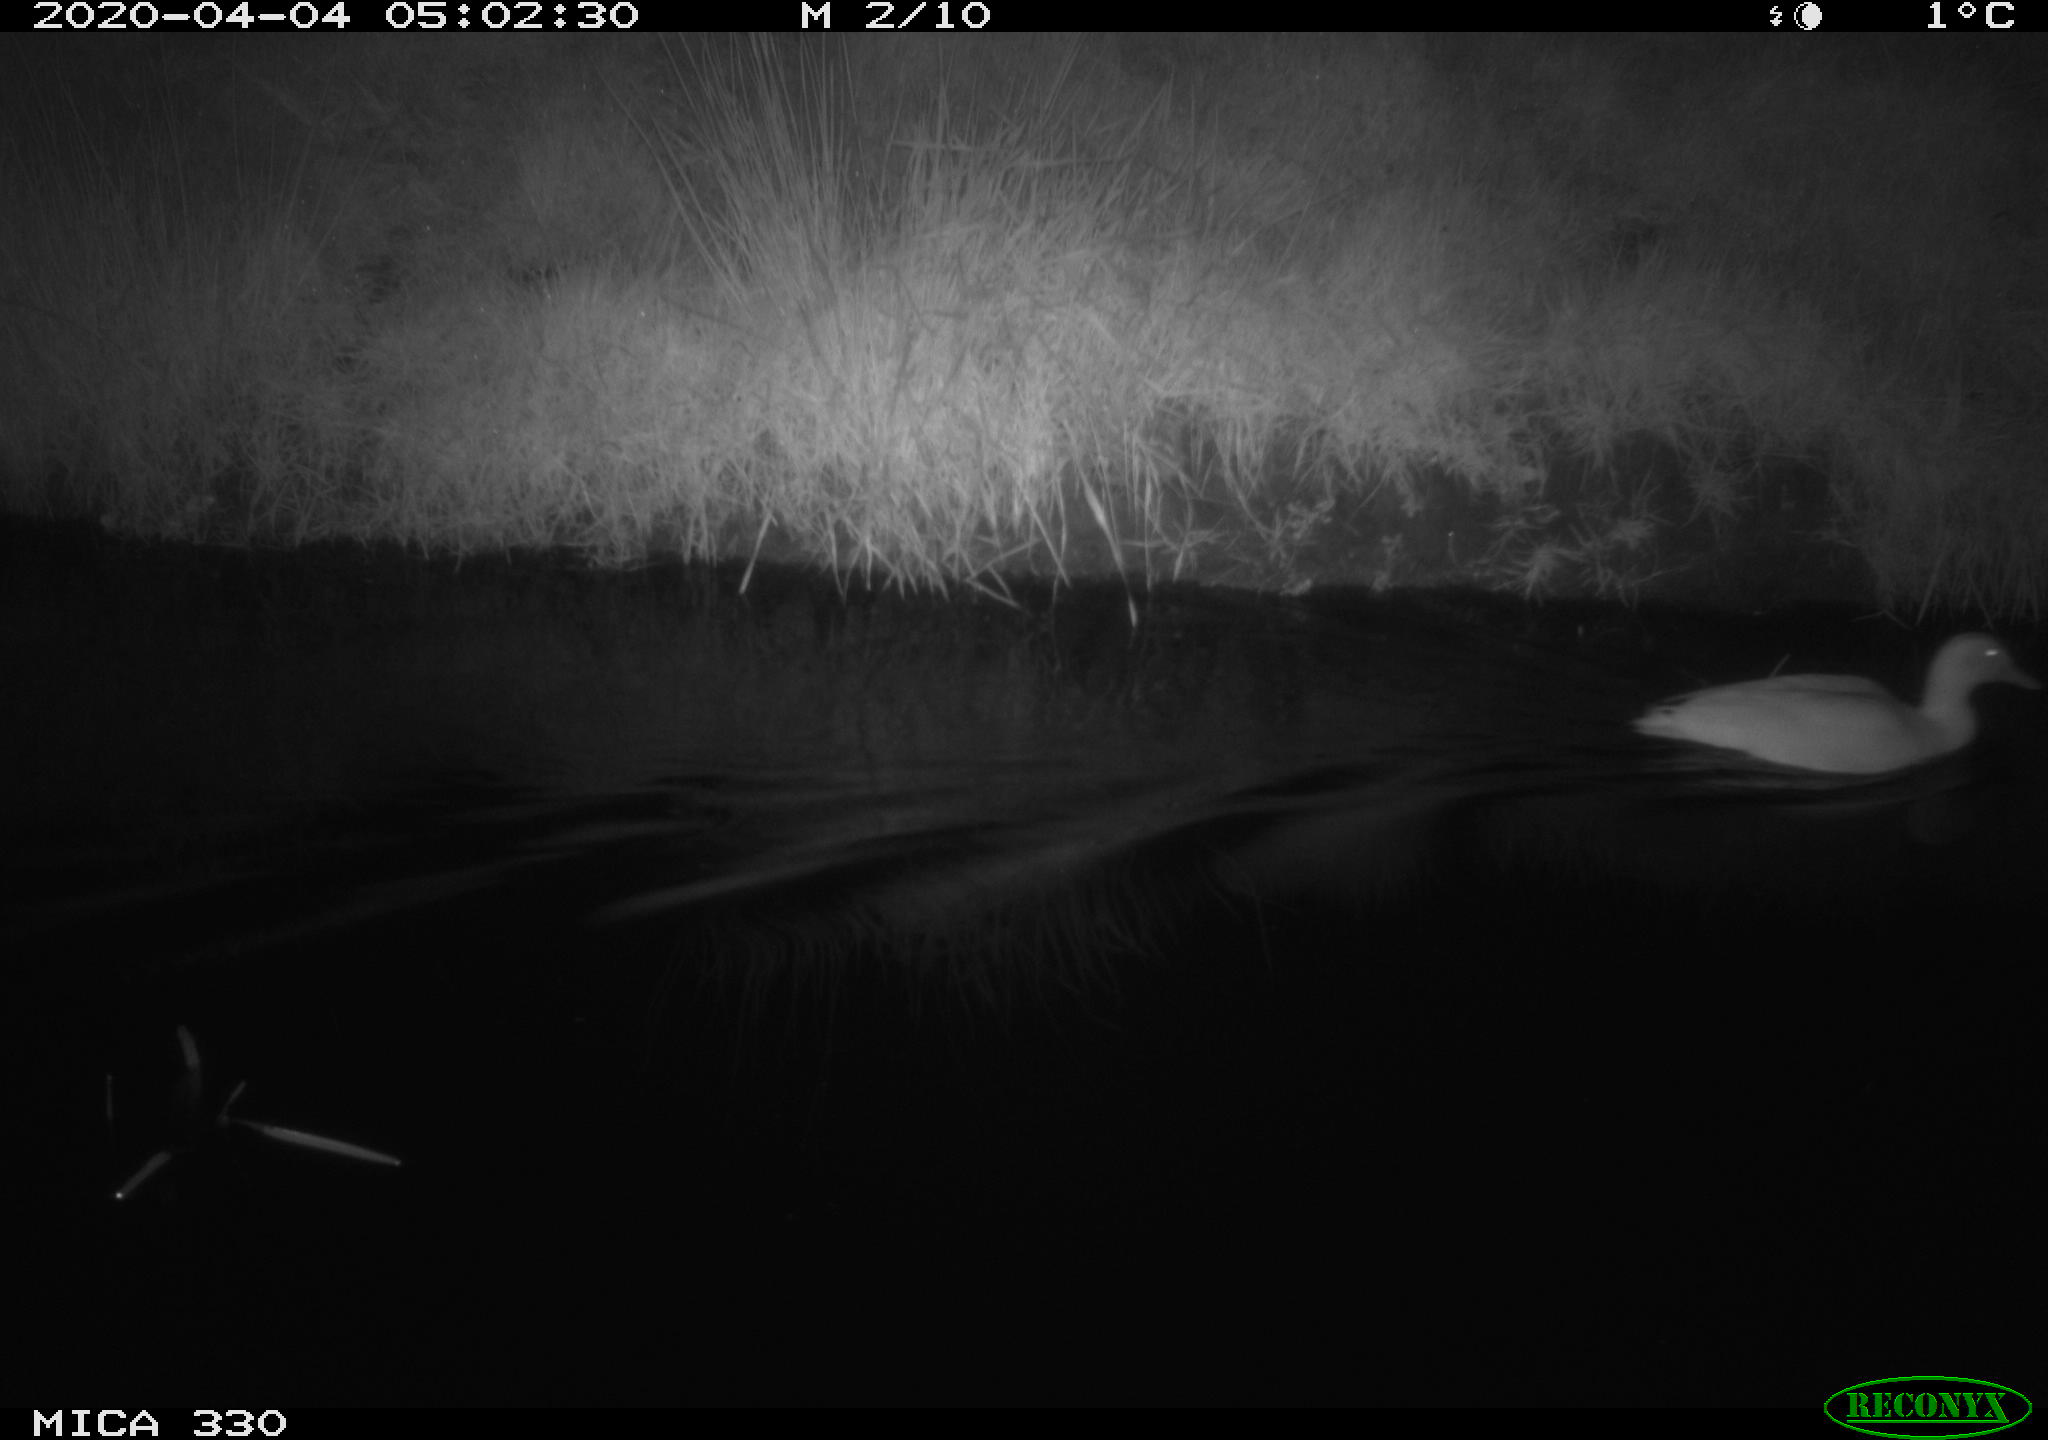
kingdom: Animalia
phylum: Chordata
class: Aves
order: Anseriformes
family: Anatidae
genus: Anas
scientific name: Anas platyrhynchos
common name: Mallard
